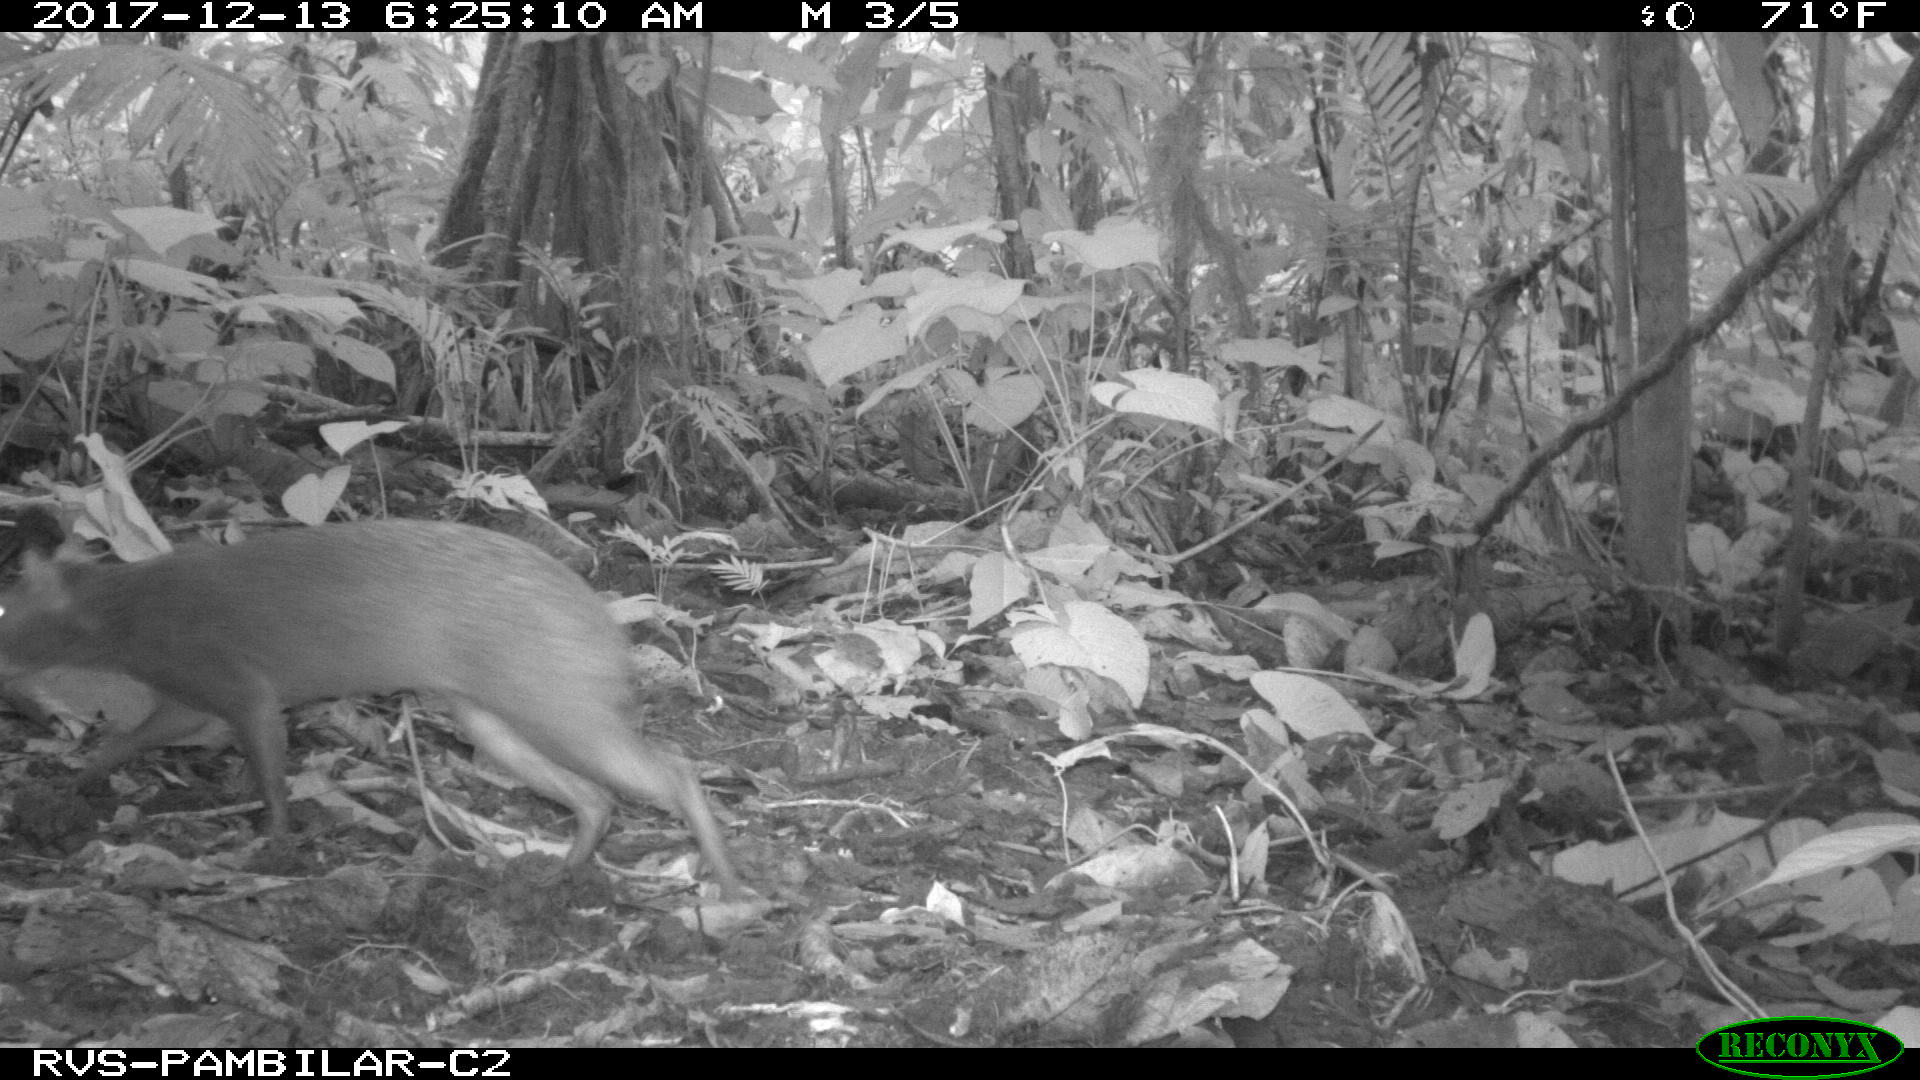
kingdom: Animalia
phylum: Chordata
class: Mammalia
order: Rodentia
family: Dasyproctidae
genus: Dasyprocta
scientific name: Dasyprocta punctata
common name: Central american agouti
